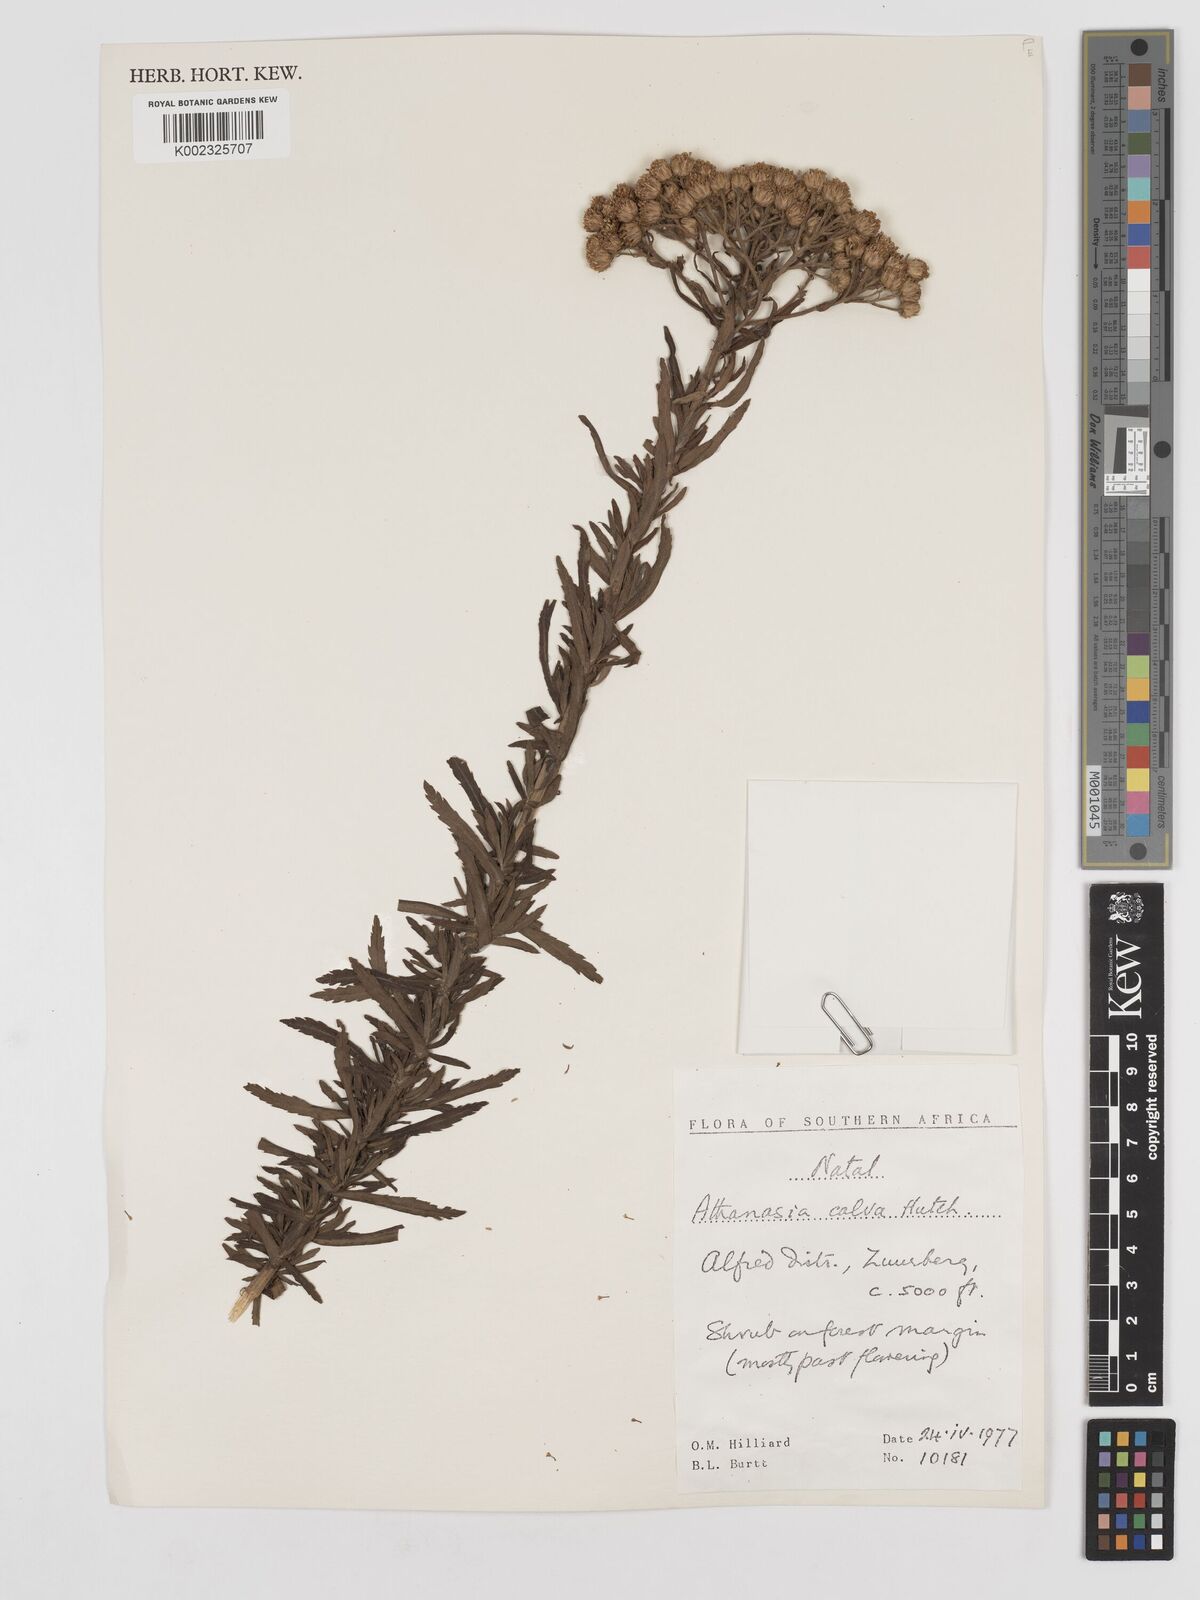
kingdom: Plantae
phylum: Tracheophyta
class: Magnoliopsida
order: Asterales
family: Asteraceae
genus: Inulanthera
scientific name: Inulanthera dregeana
